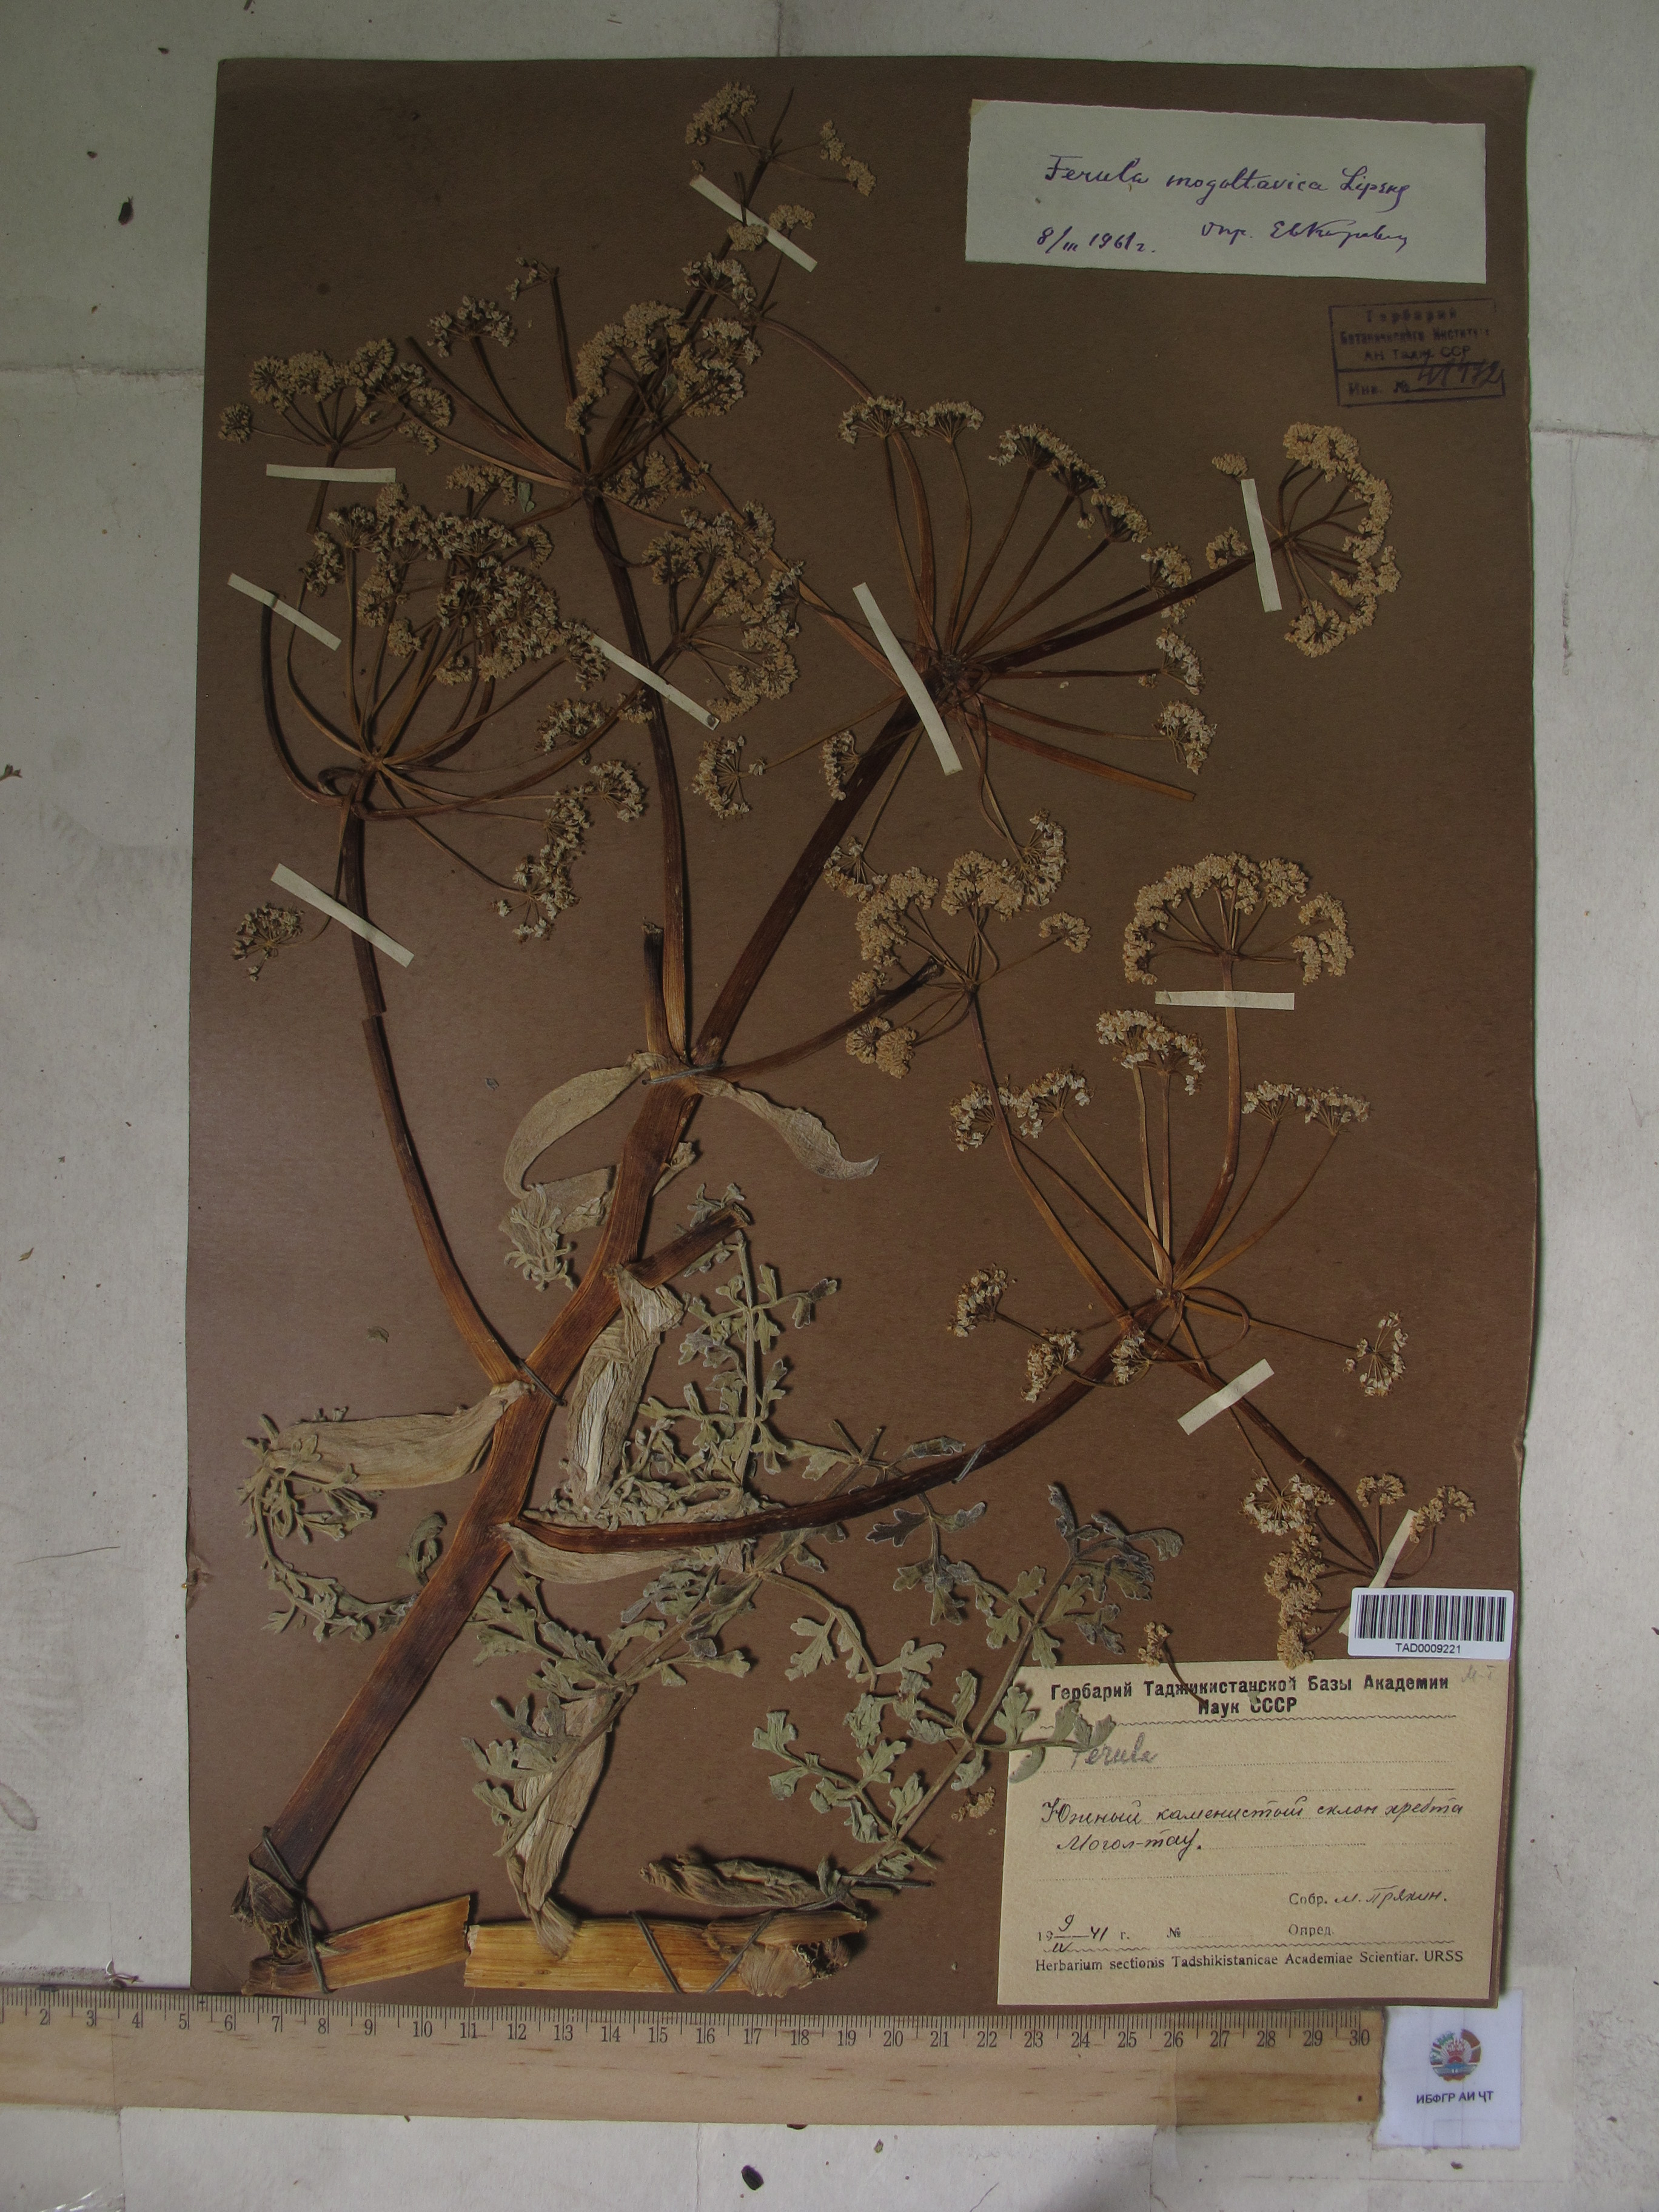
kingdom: Plantae
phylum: Tracheophyta
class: Magnoliopsida
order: Apiales
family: Apiaceae
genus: Ferula
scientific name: Ferula ovina
